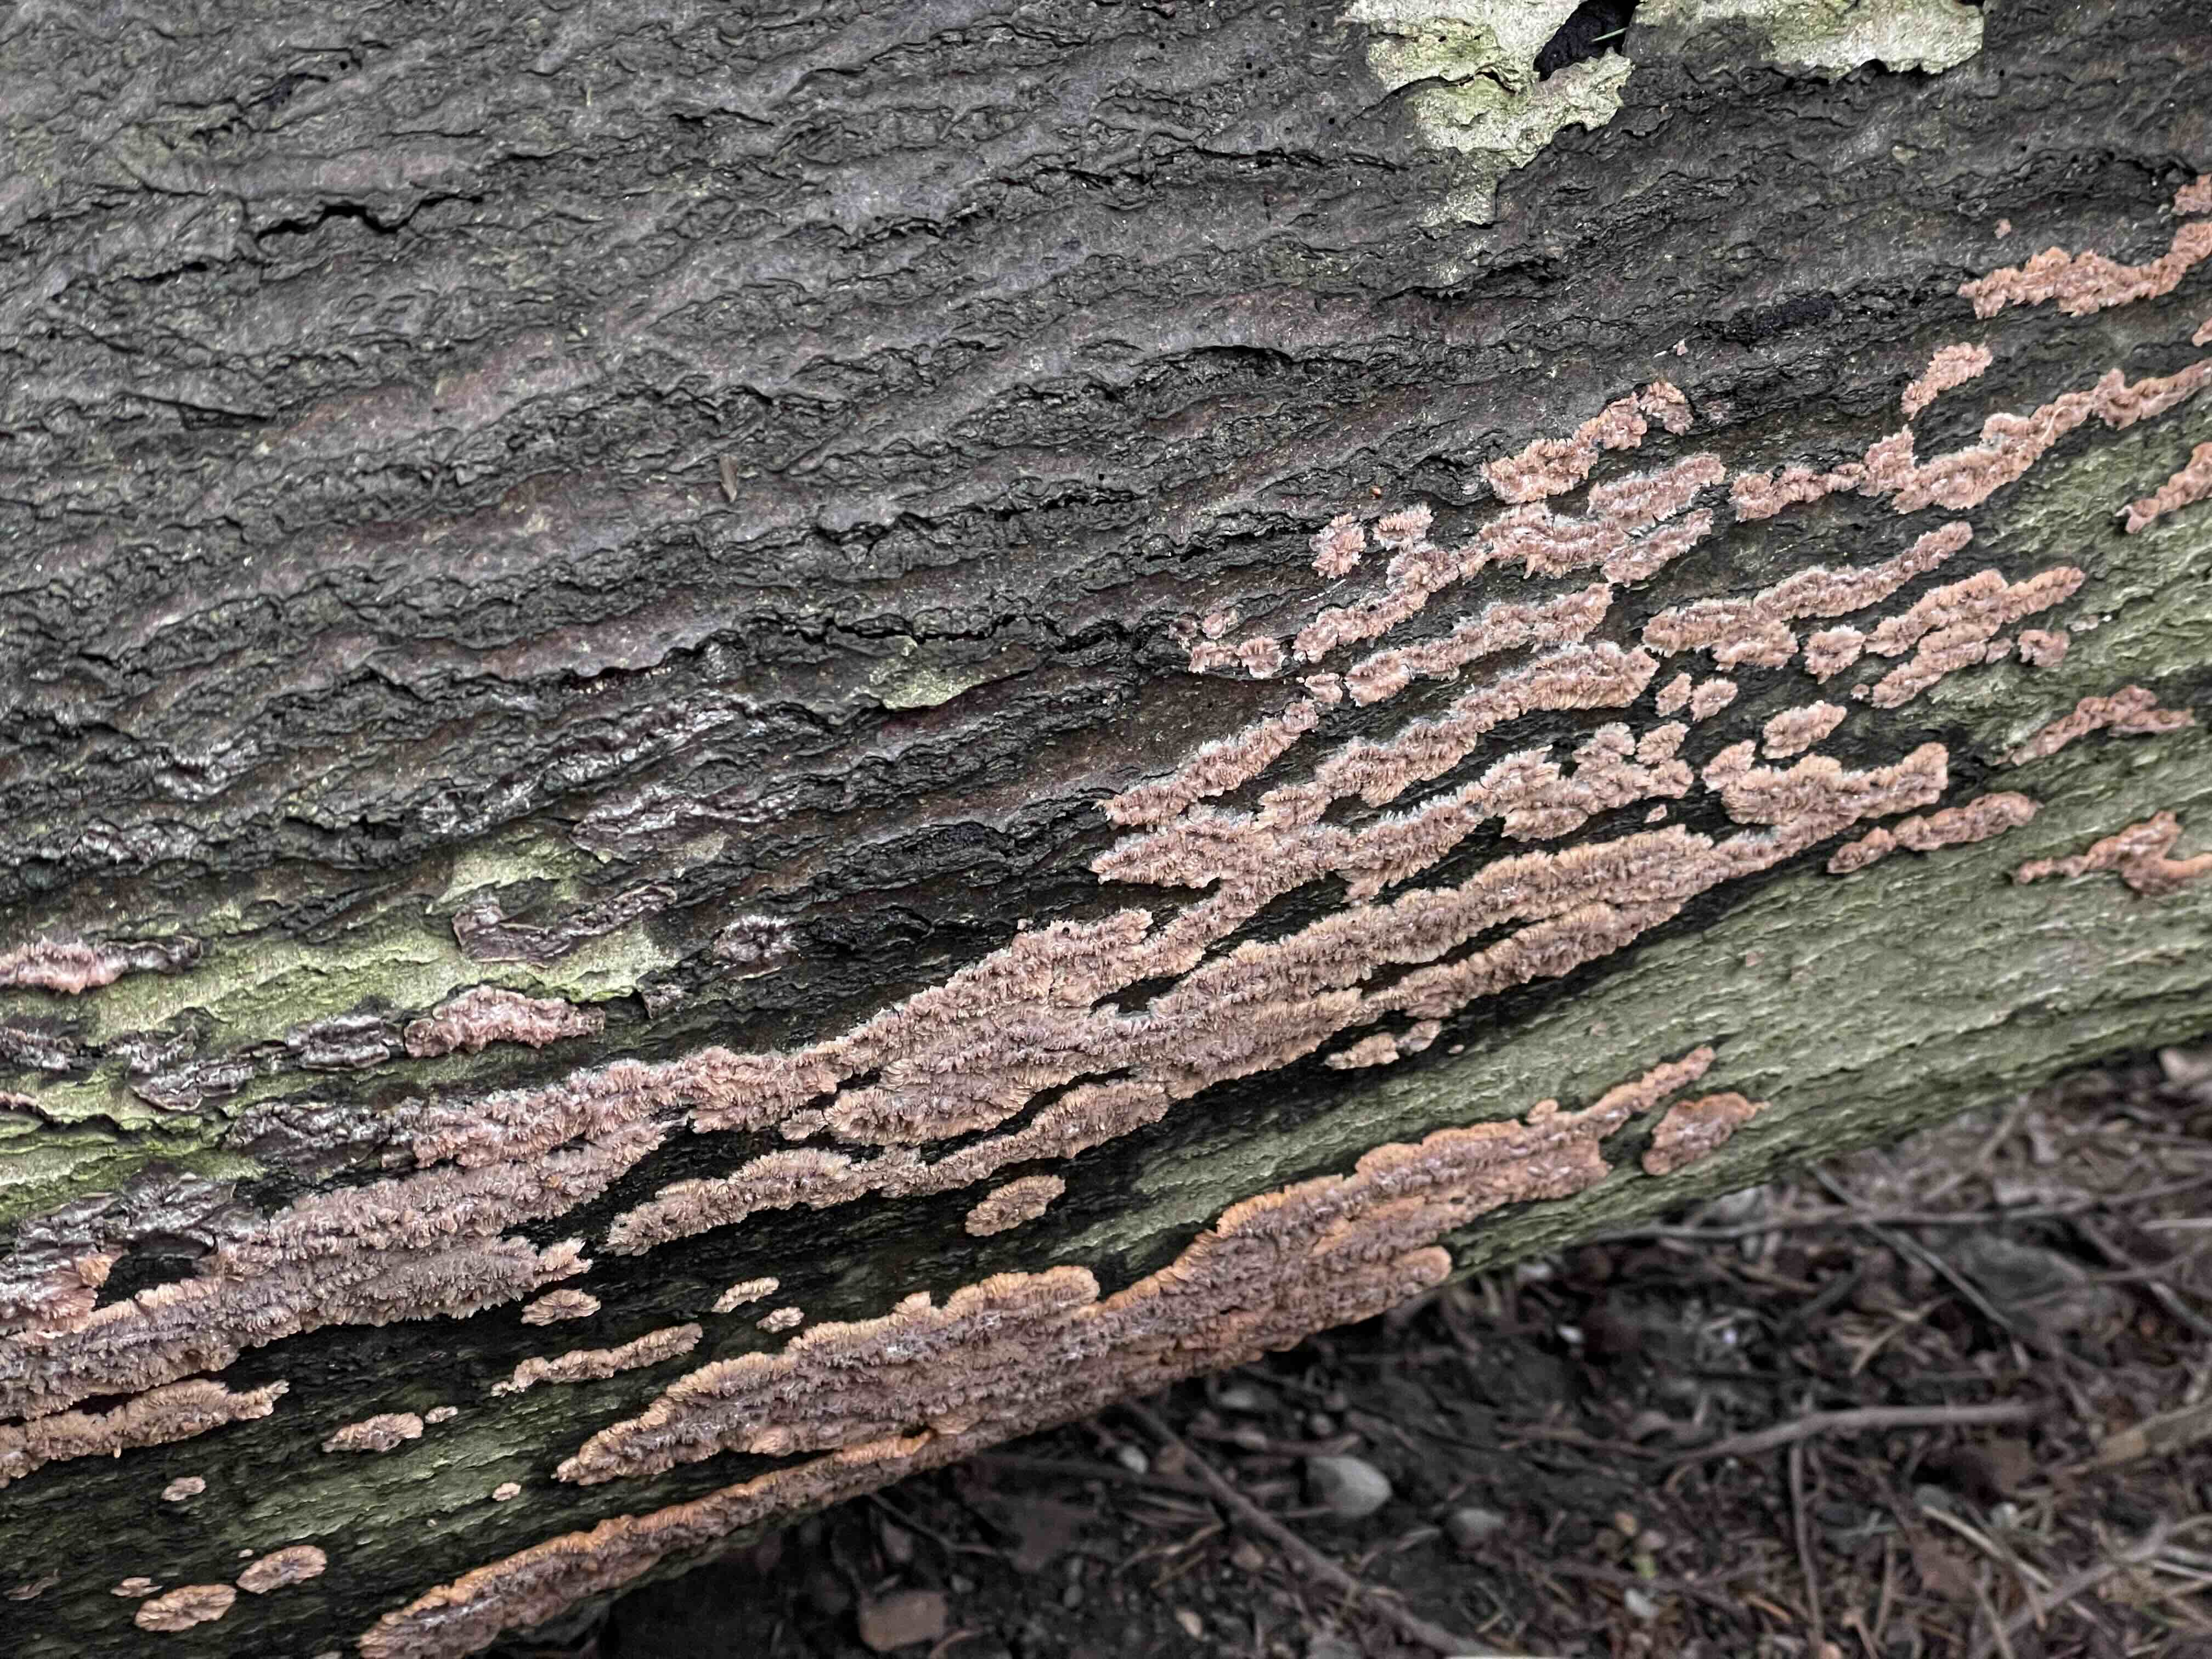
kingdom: Fungi
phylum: Basidiomycota
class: Agaricomycetes
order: Polyporales
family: Meruliaceae
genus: Phlebia
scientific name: Phlebia radiata
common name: stråle-åresvamp
